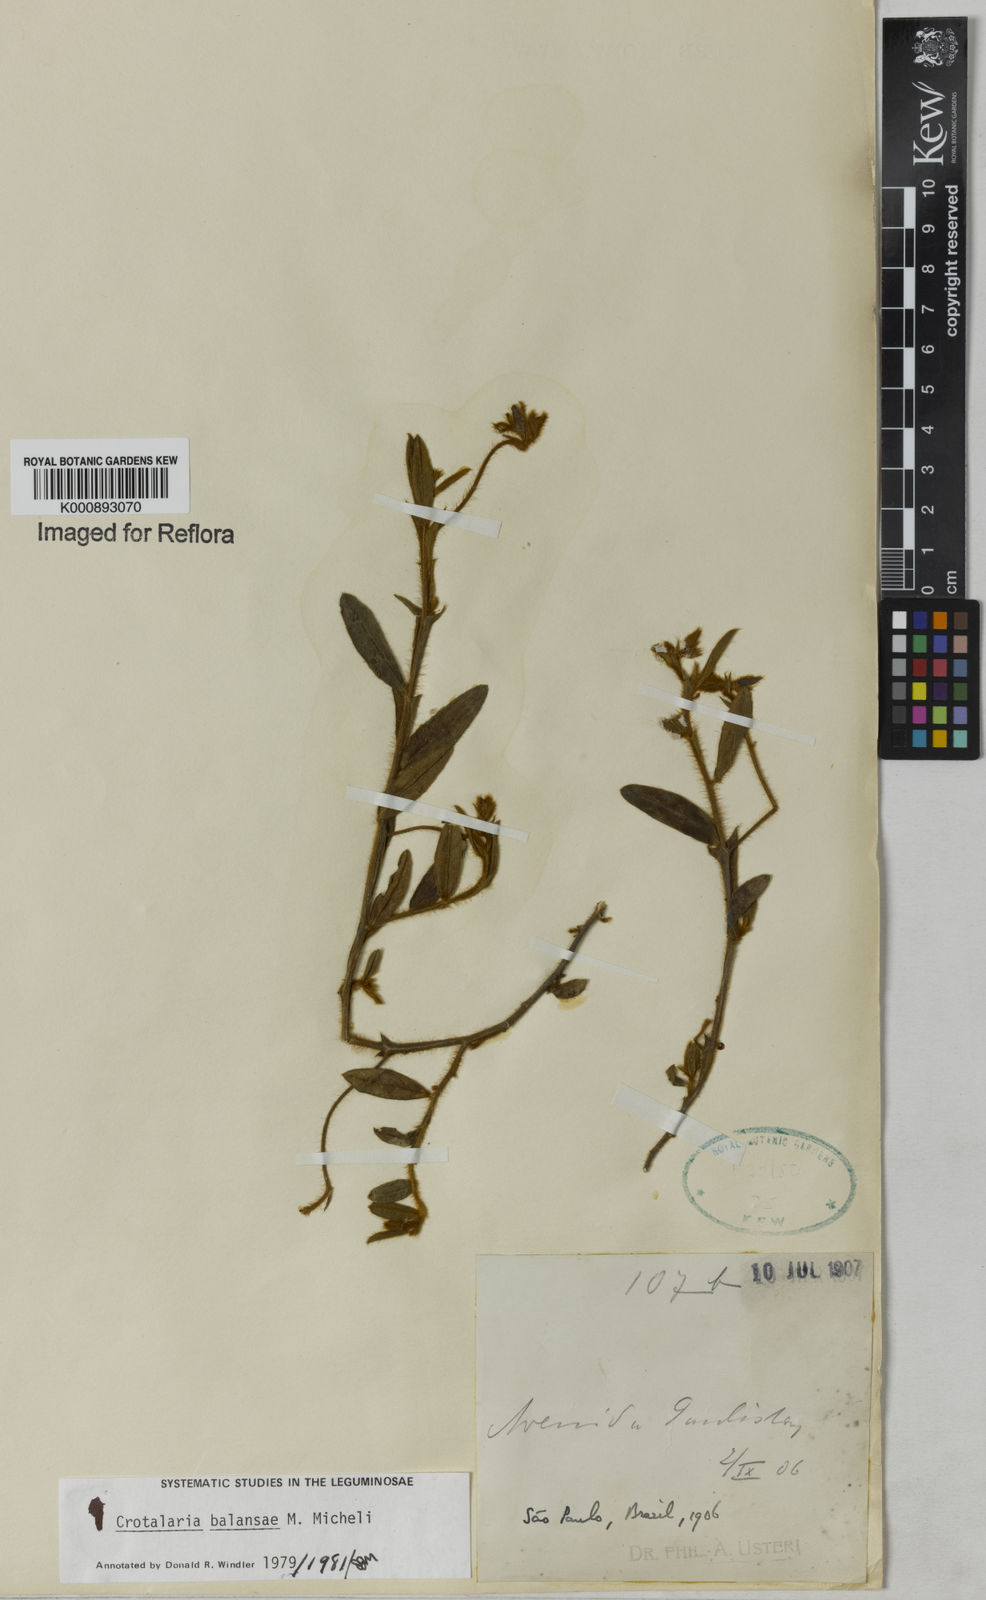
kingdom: Plantae
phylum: Tracheophyta
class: Magnoliopsida
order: Fabales
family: Fabaceae
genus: Crotalaria
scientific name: Crotalaria balansae
